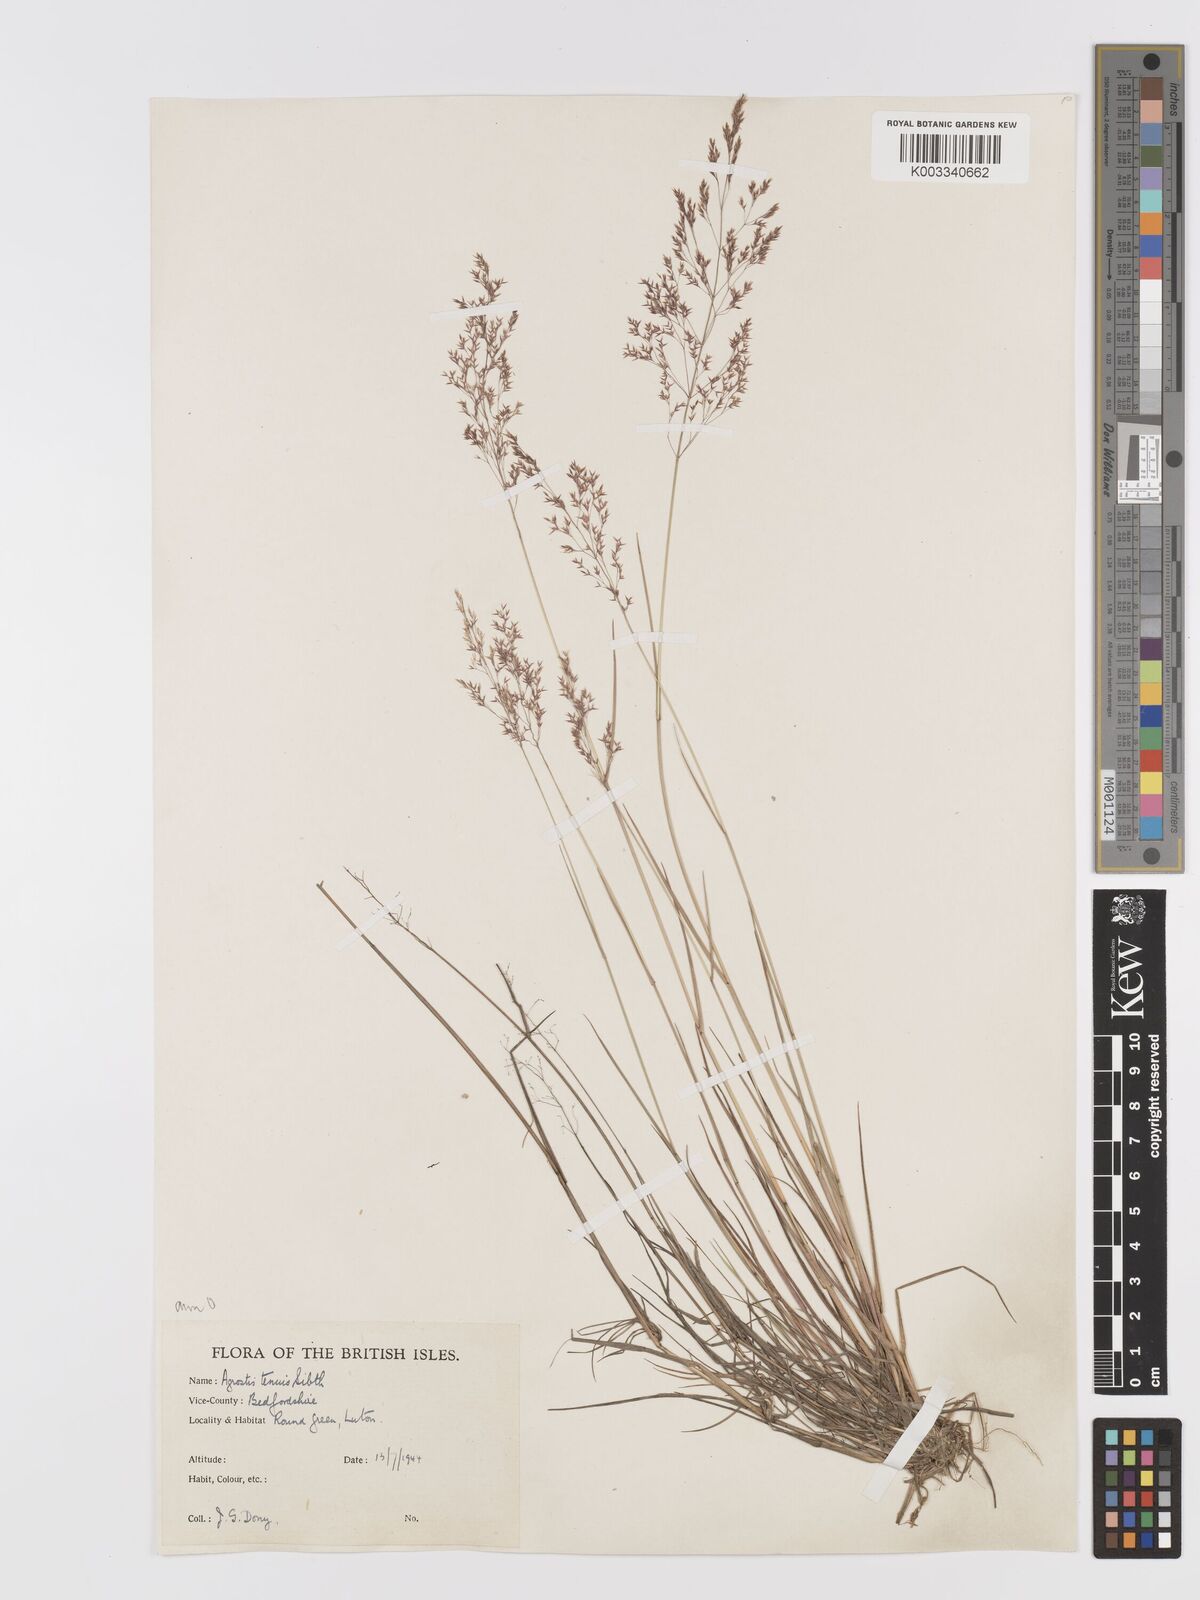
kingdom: Plantae
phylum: Tracheophyta
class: Liliopsida
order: Poales
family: Poaceae
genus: Agrostis
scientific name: Agrostis capillaris
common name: Colonial bentgrass
